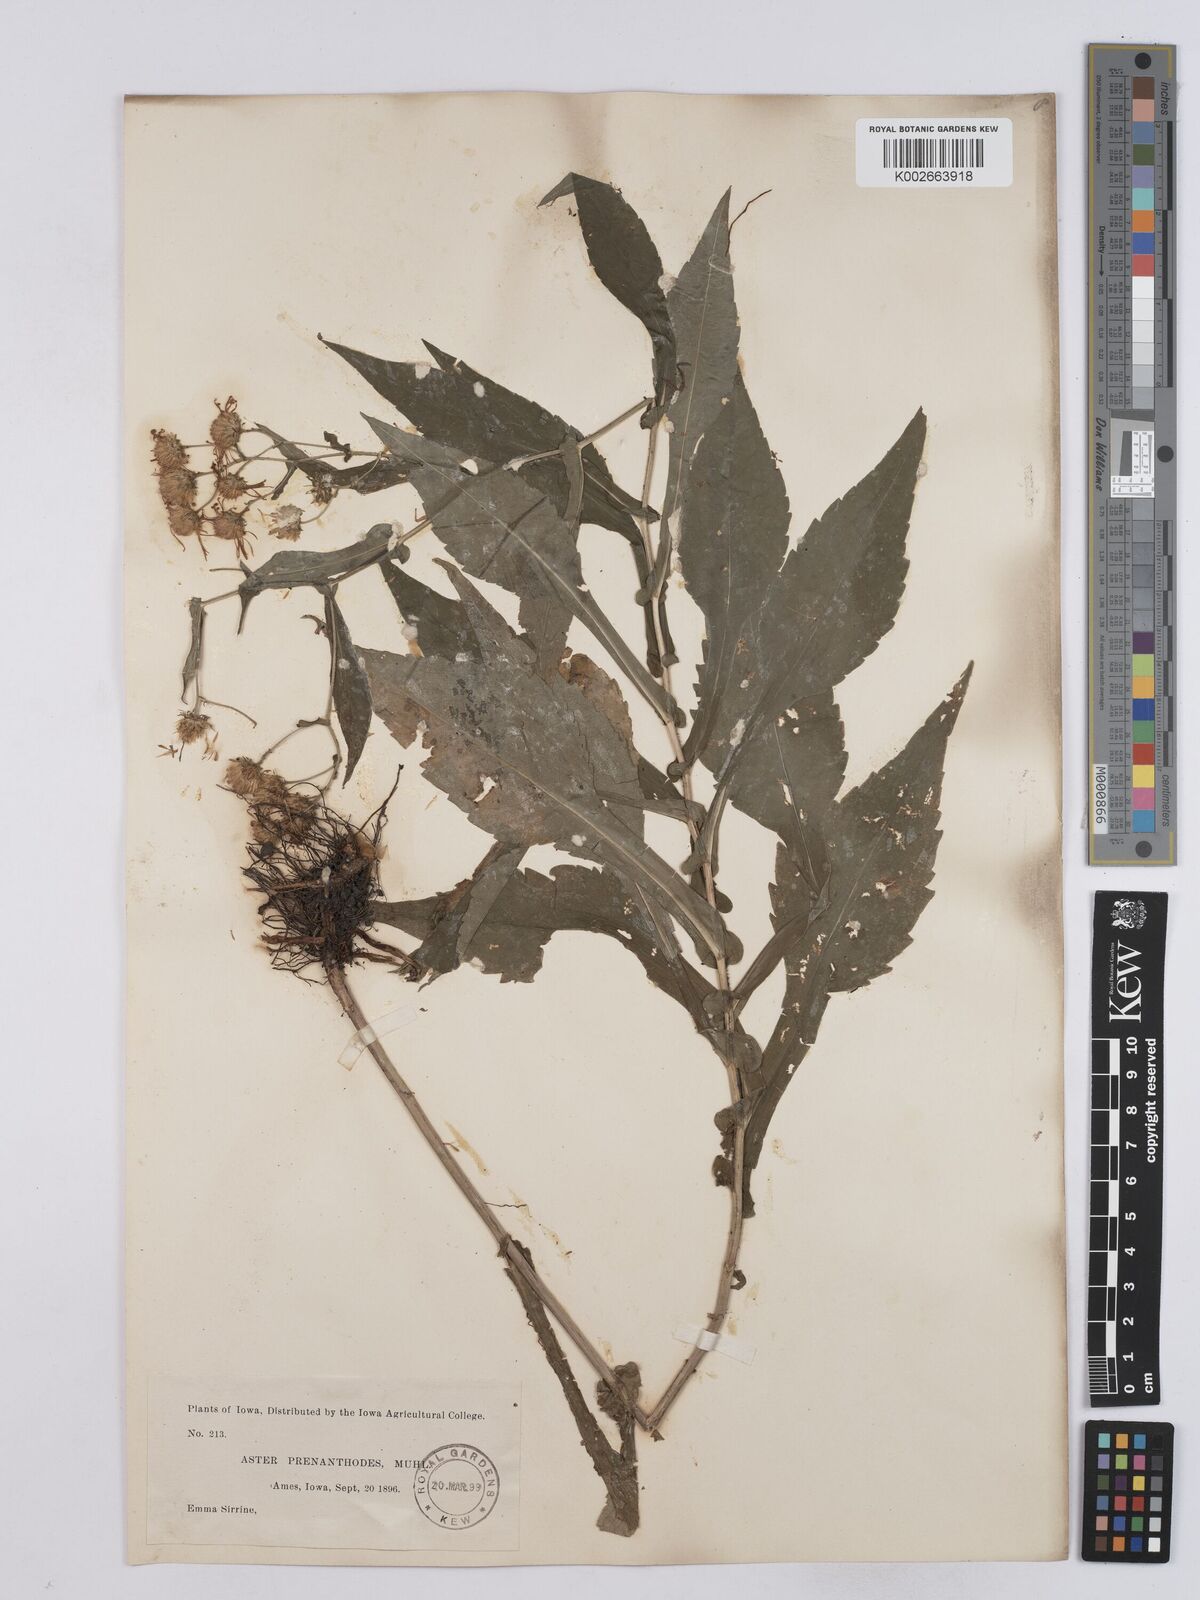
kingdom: Plantae
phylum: Tracheophyta
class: Magnoliopsida
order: Asterales
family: Asteraceae
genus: Symphyotrichum
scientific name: Symphyotrichum prenanthoides
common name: Crooked-stem aster
